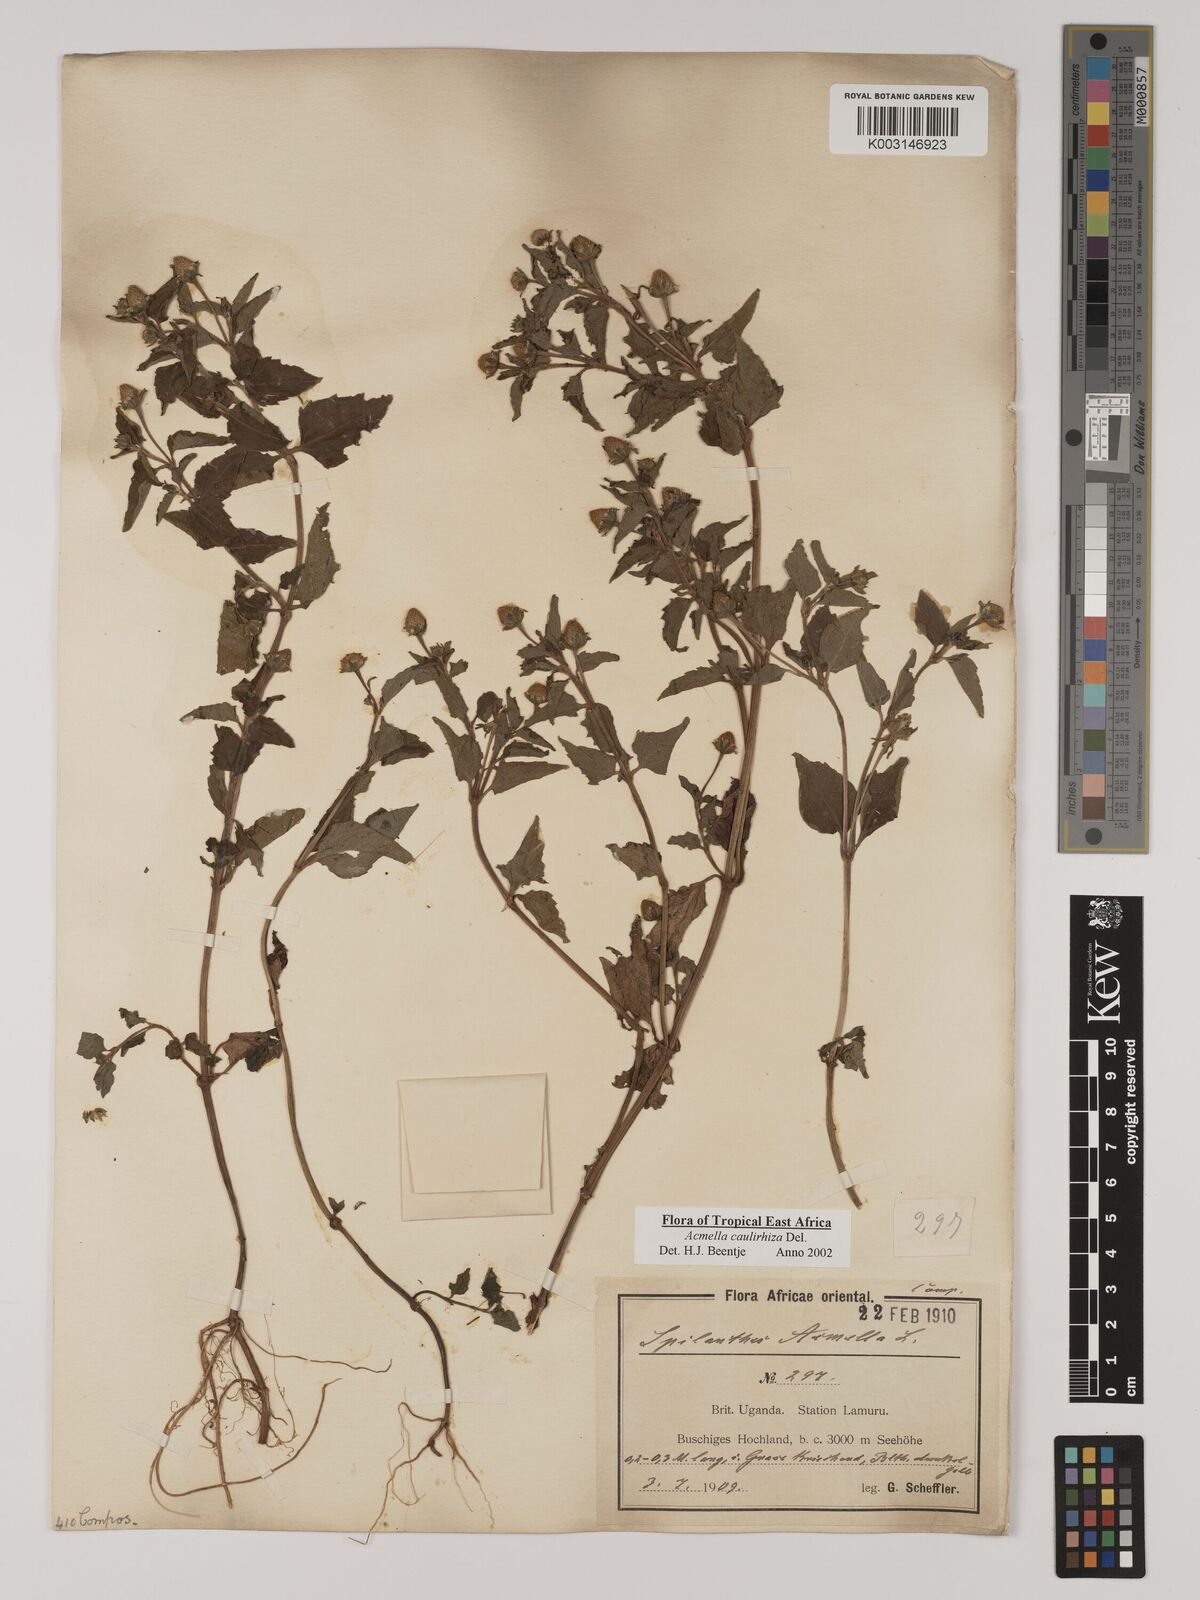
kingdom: Plantae
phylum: Tracheophyta
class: Magnoliopsida
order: Asterales
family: Asteraceae
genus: Acmella
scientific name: Acmella caulirhiza
